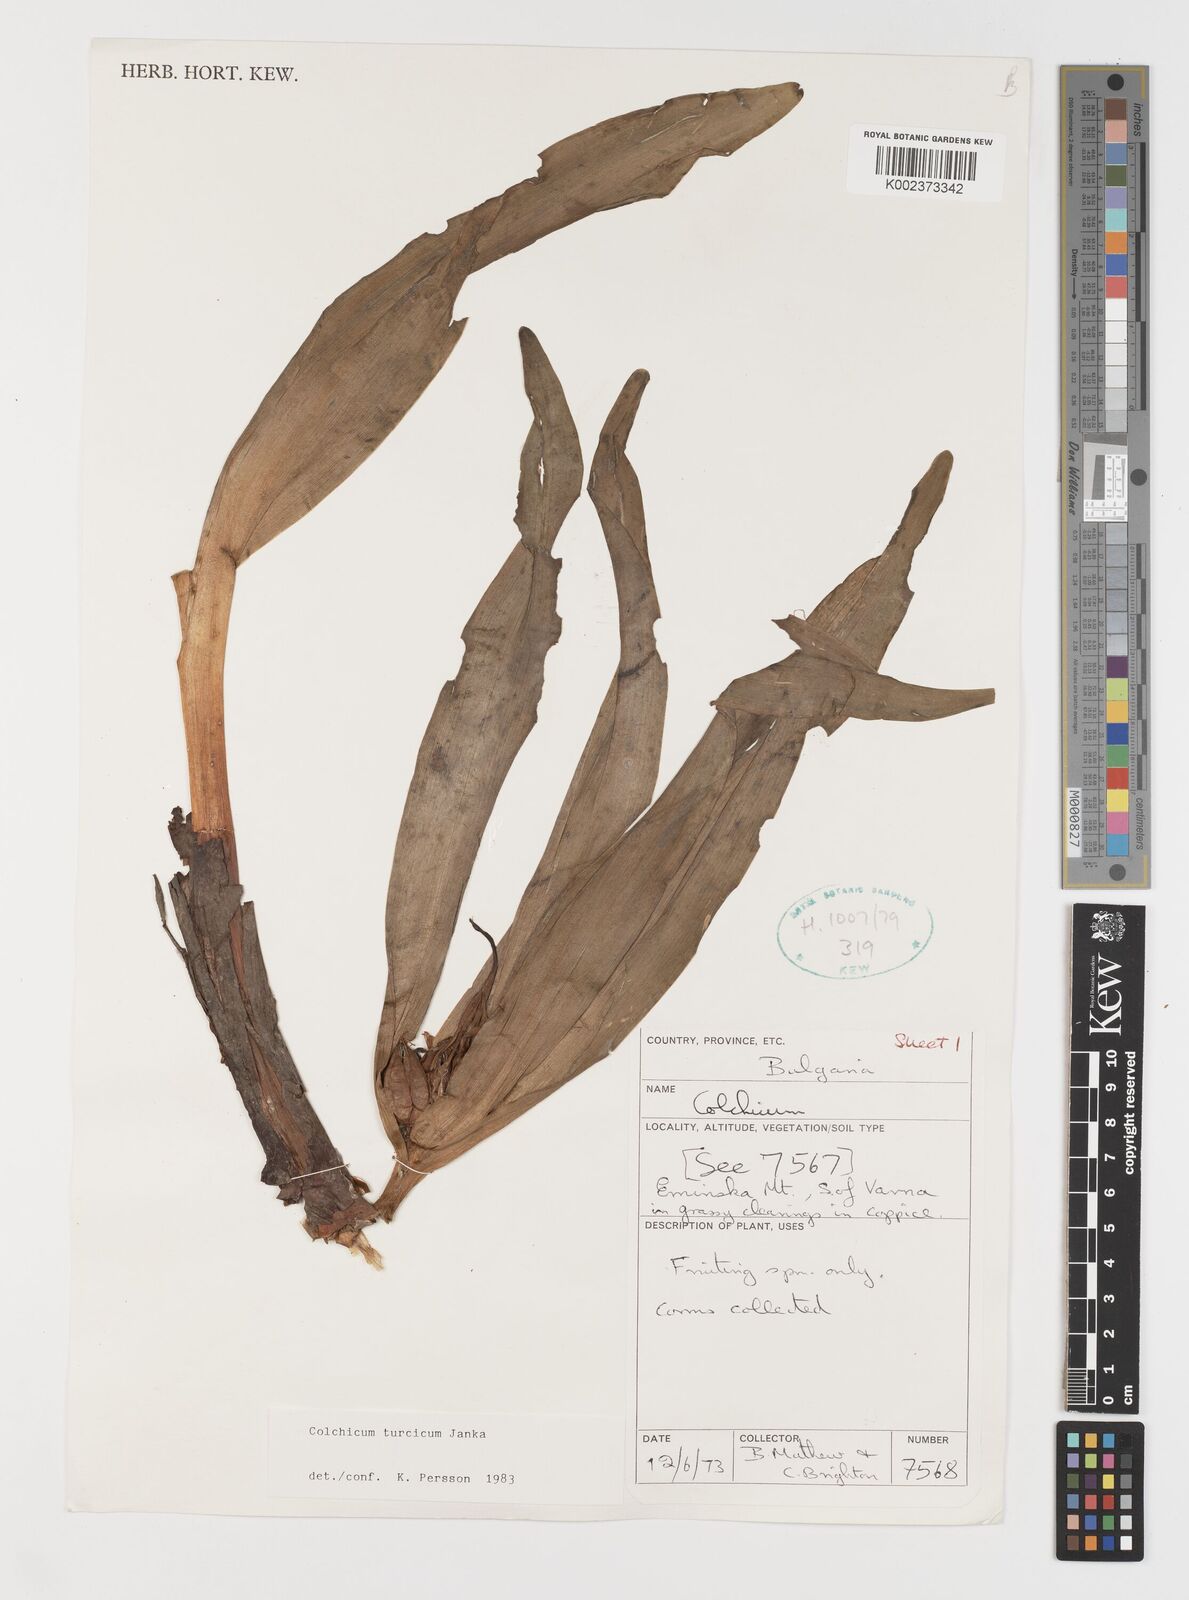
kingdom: Plantae
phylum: Tracheophyta
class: Liliopsida
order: Liliales
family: Colchicaceae
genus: Colchicum
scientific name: Colchicum turcicum
